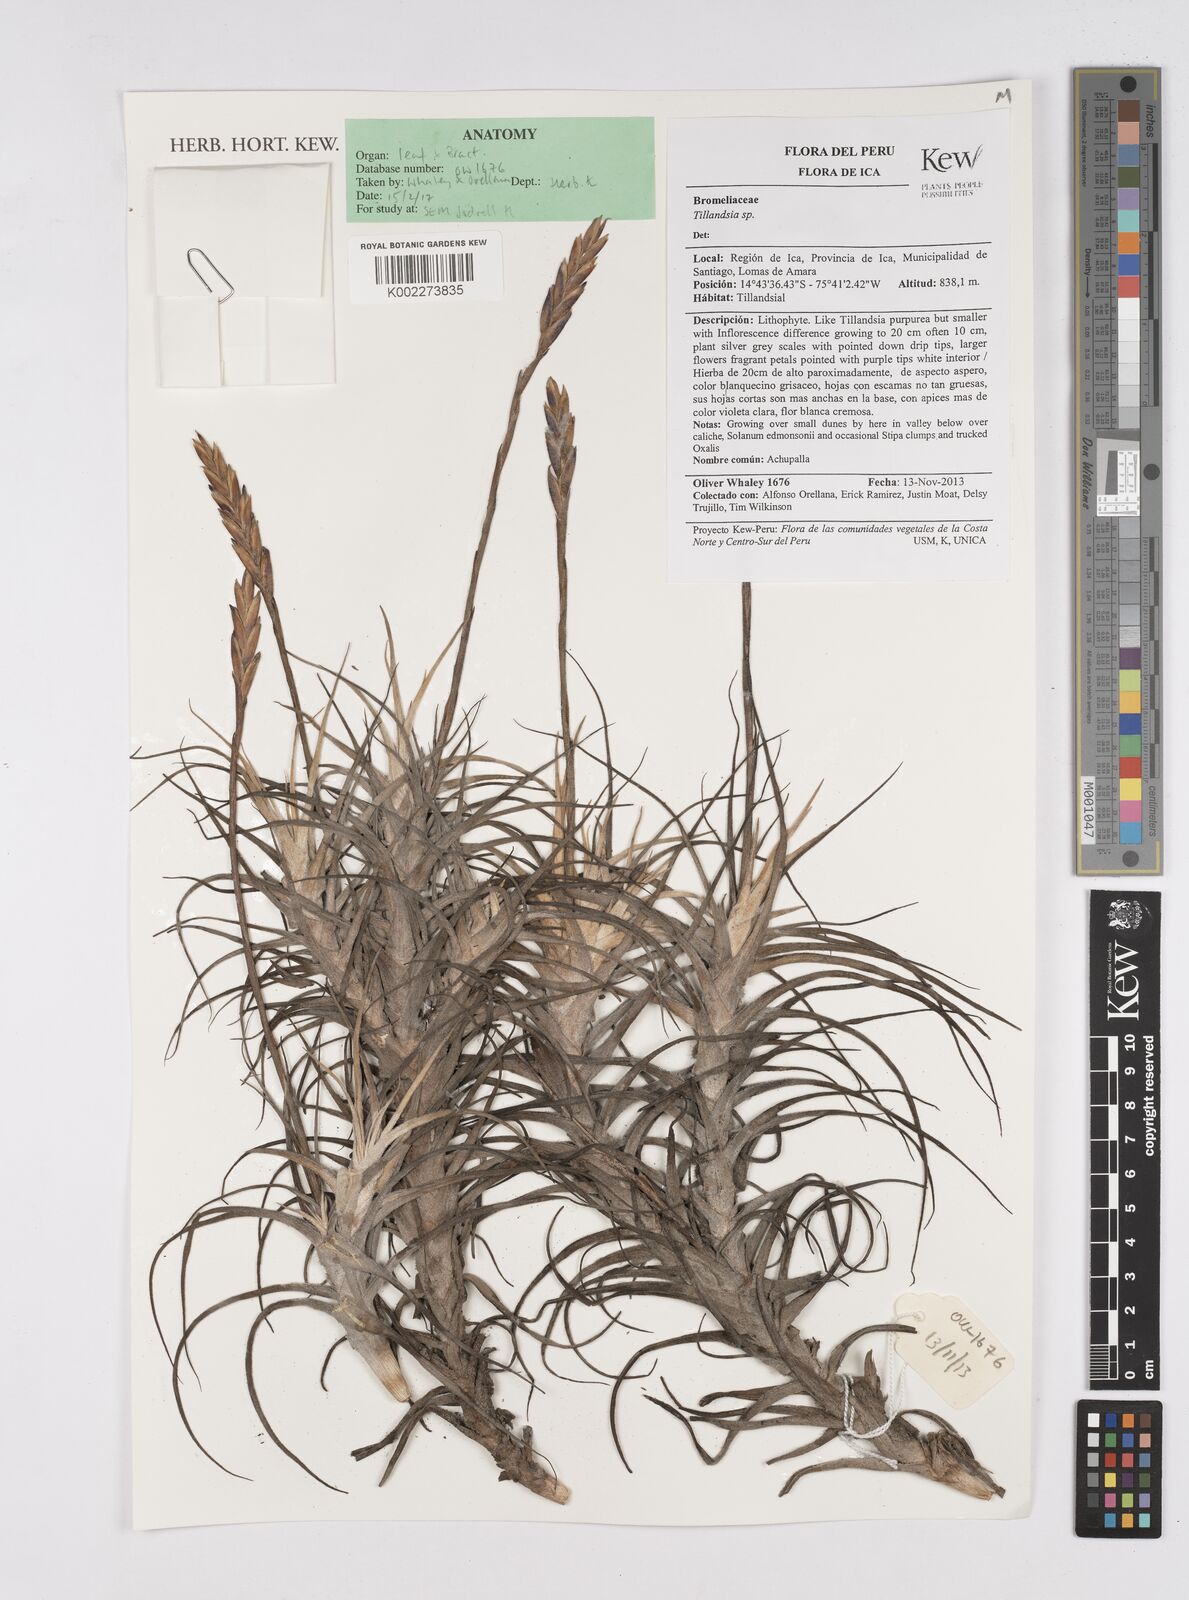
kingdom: Plantae
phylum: Tracheophyta
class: Liliopsida
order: Poales
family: Bromeliaceae
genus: Tillandsia
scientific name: Tillandsia
